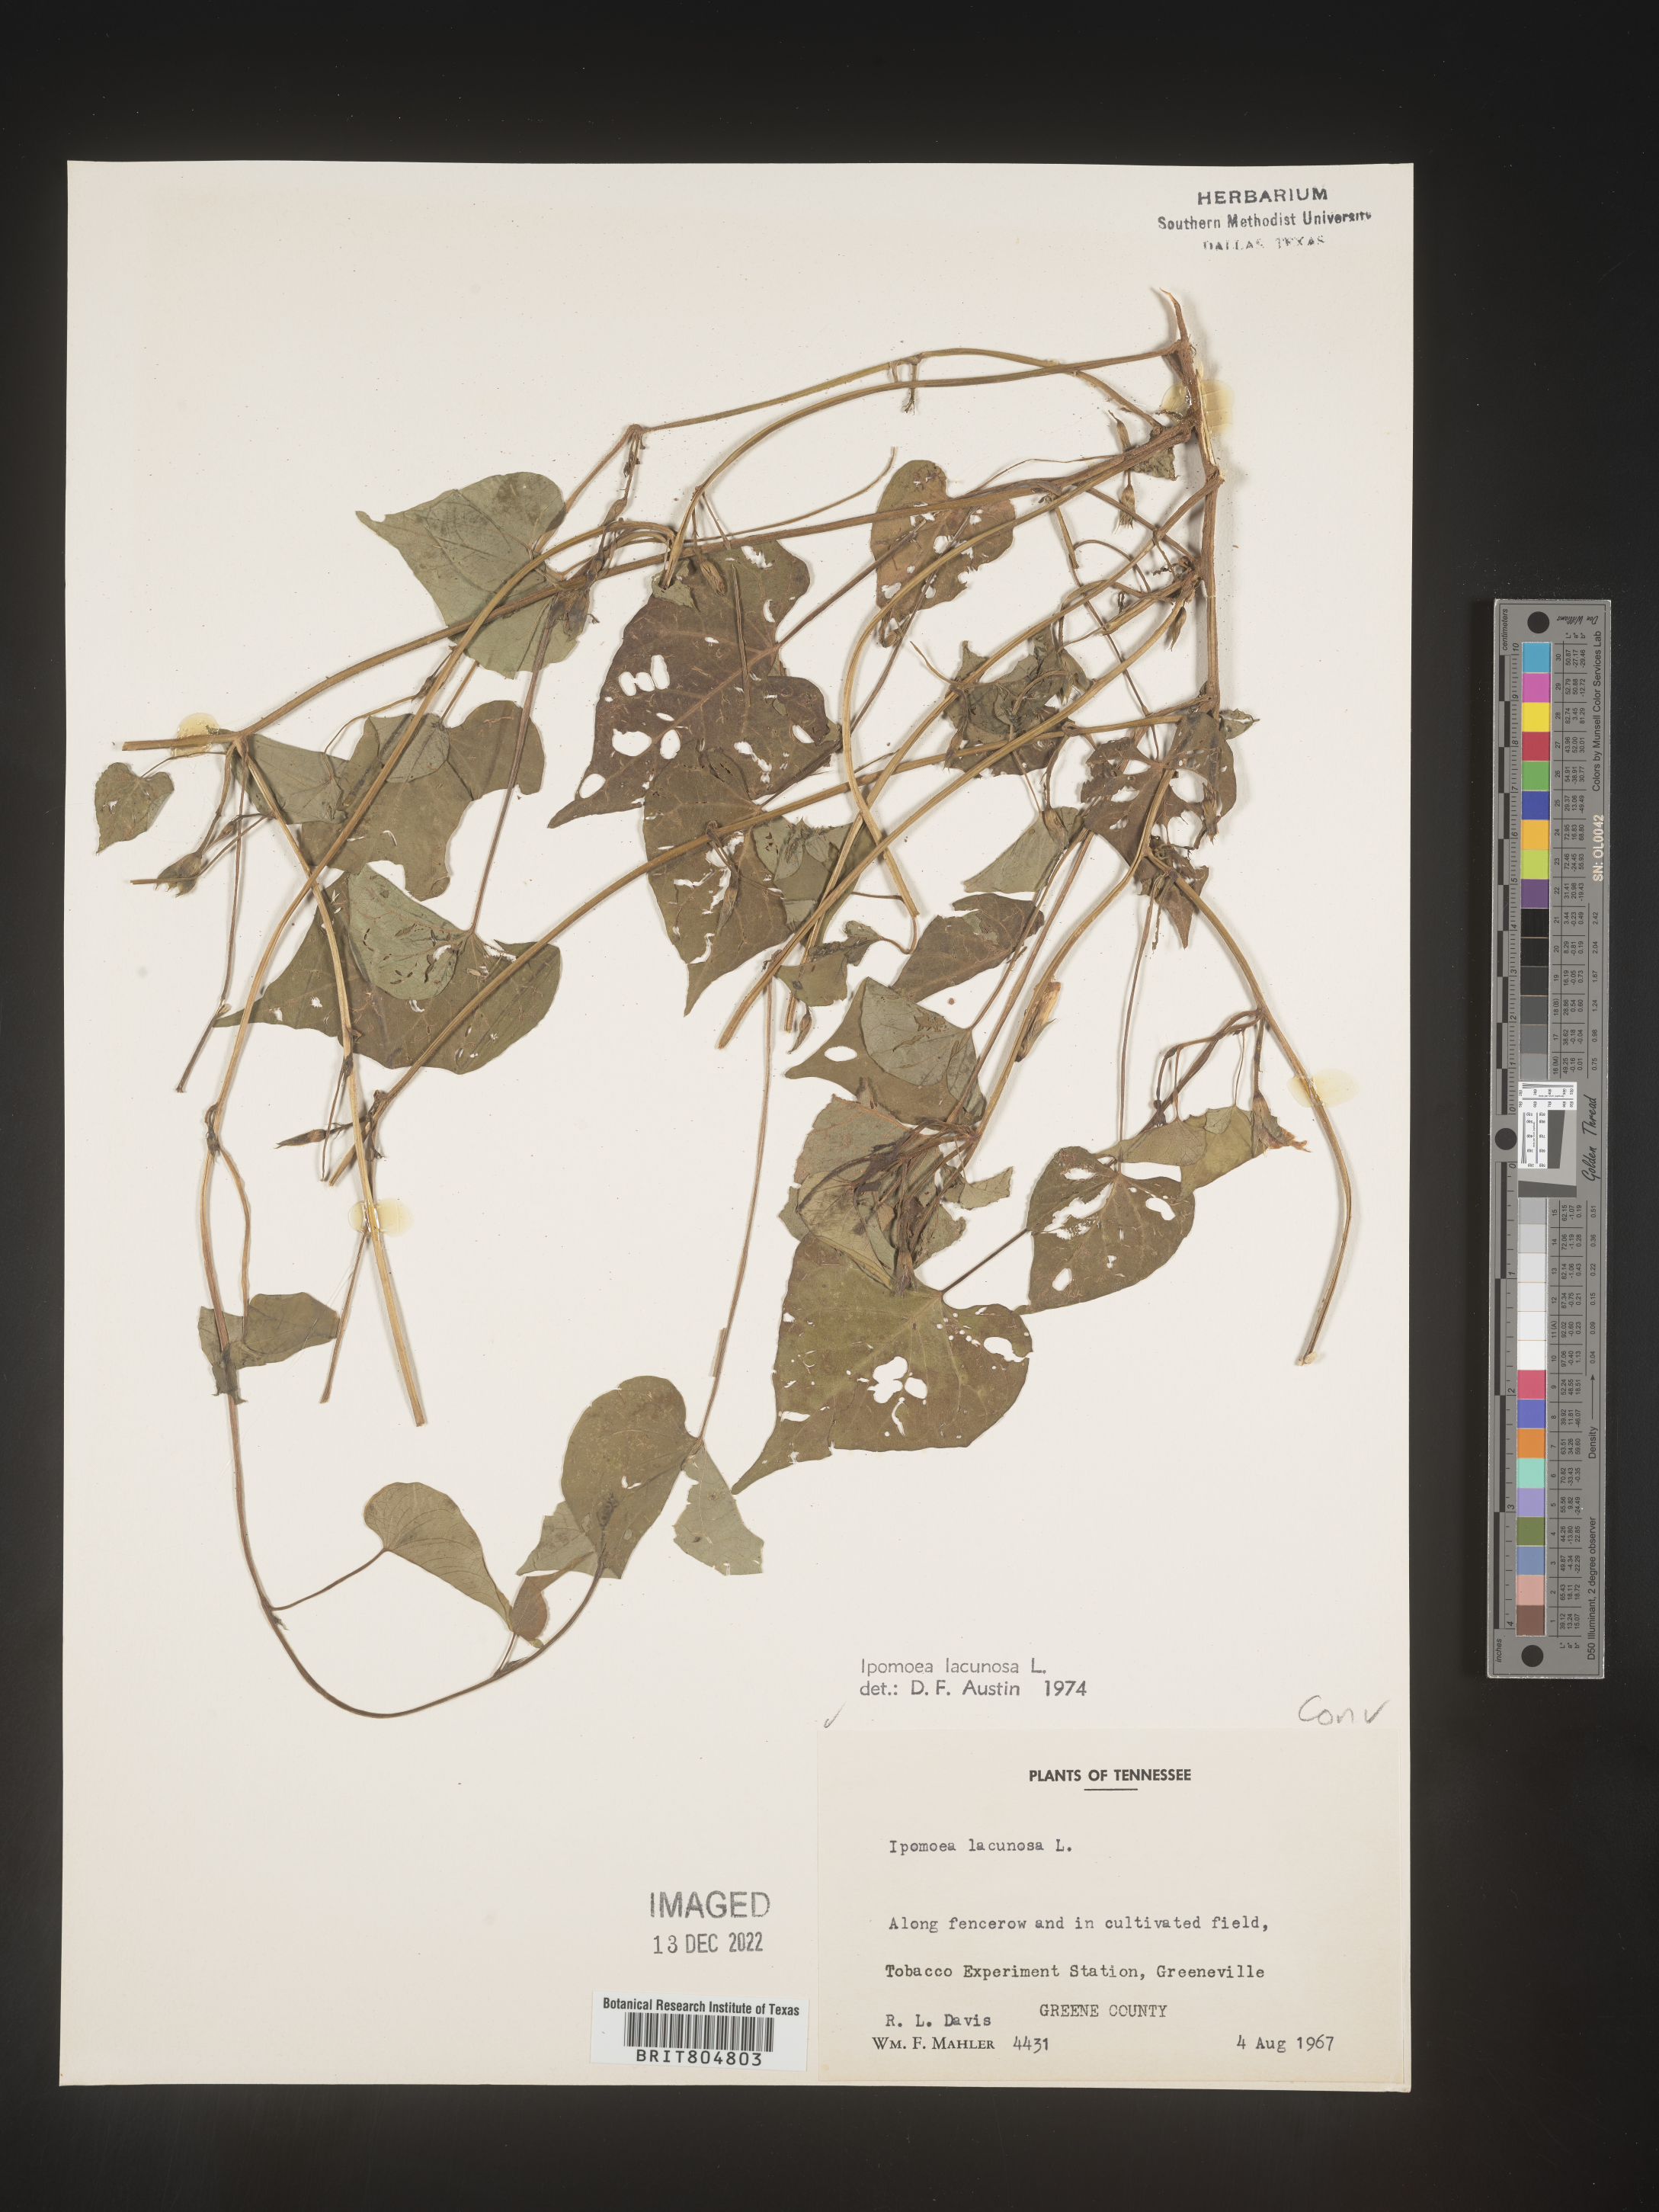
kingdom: Plantae
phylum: Tracheophyta
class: Magnoliopsida
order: Solanales
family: Convolvulaceae
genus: Ipomoea
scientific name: Ipomoea lacunosa
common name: White morning-glory
